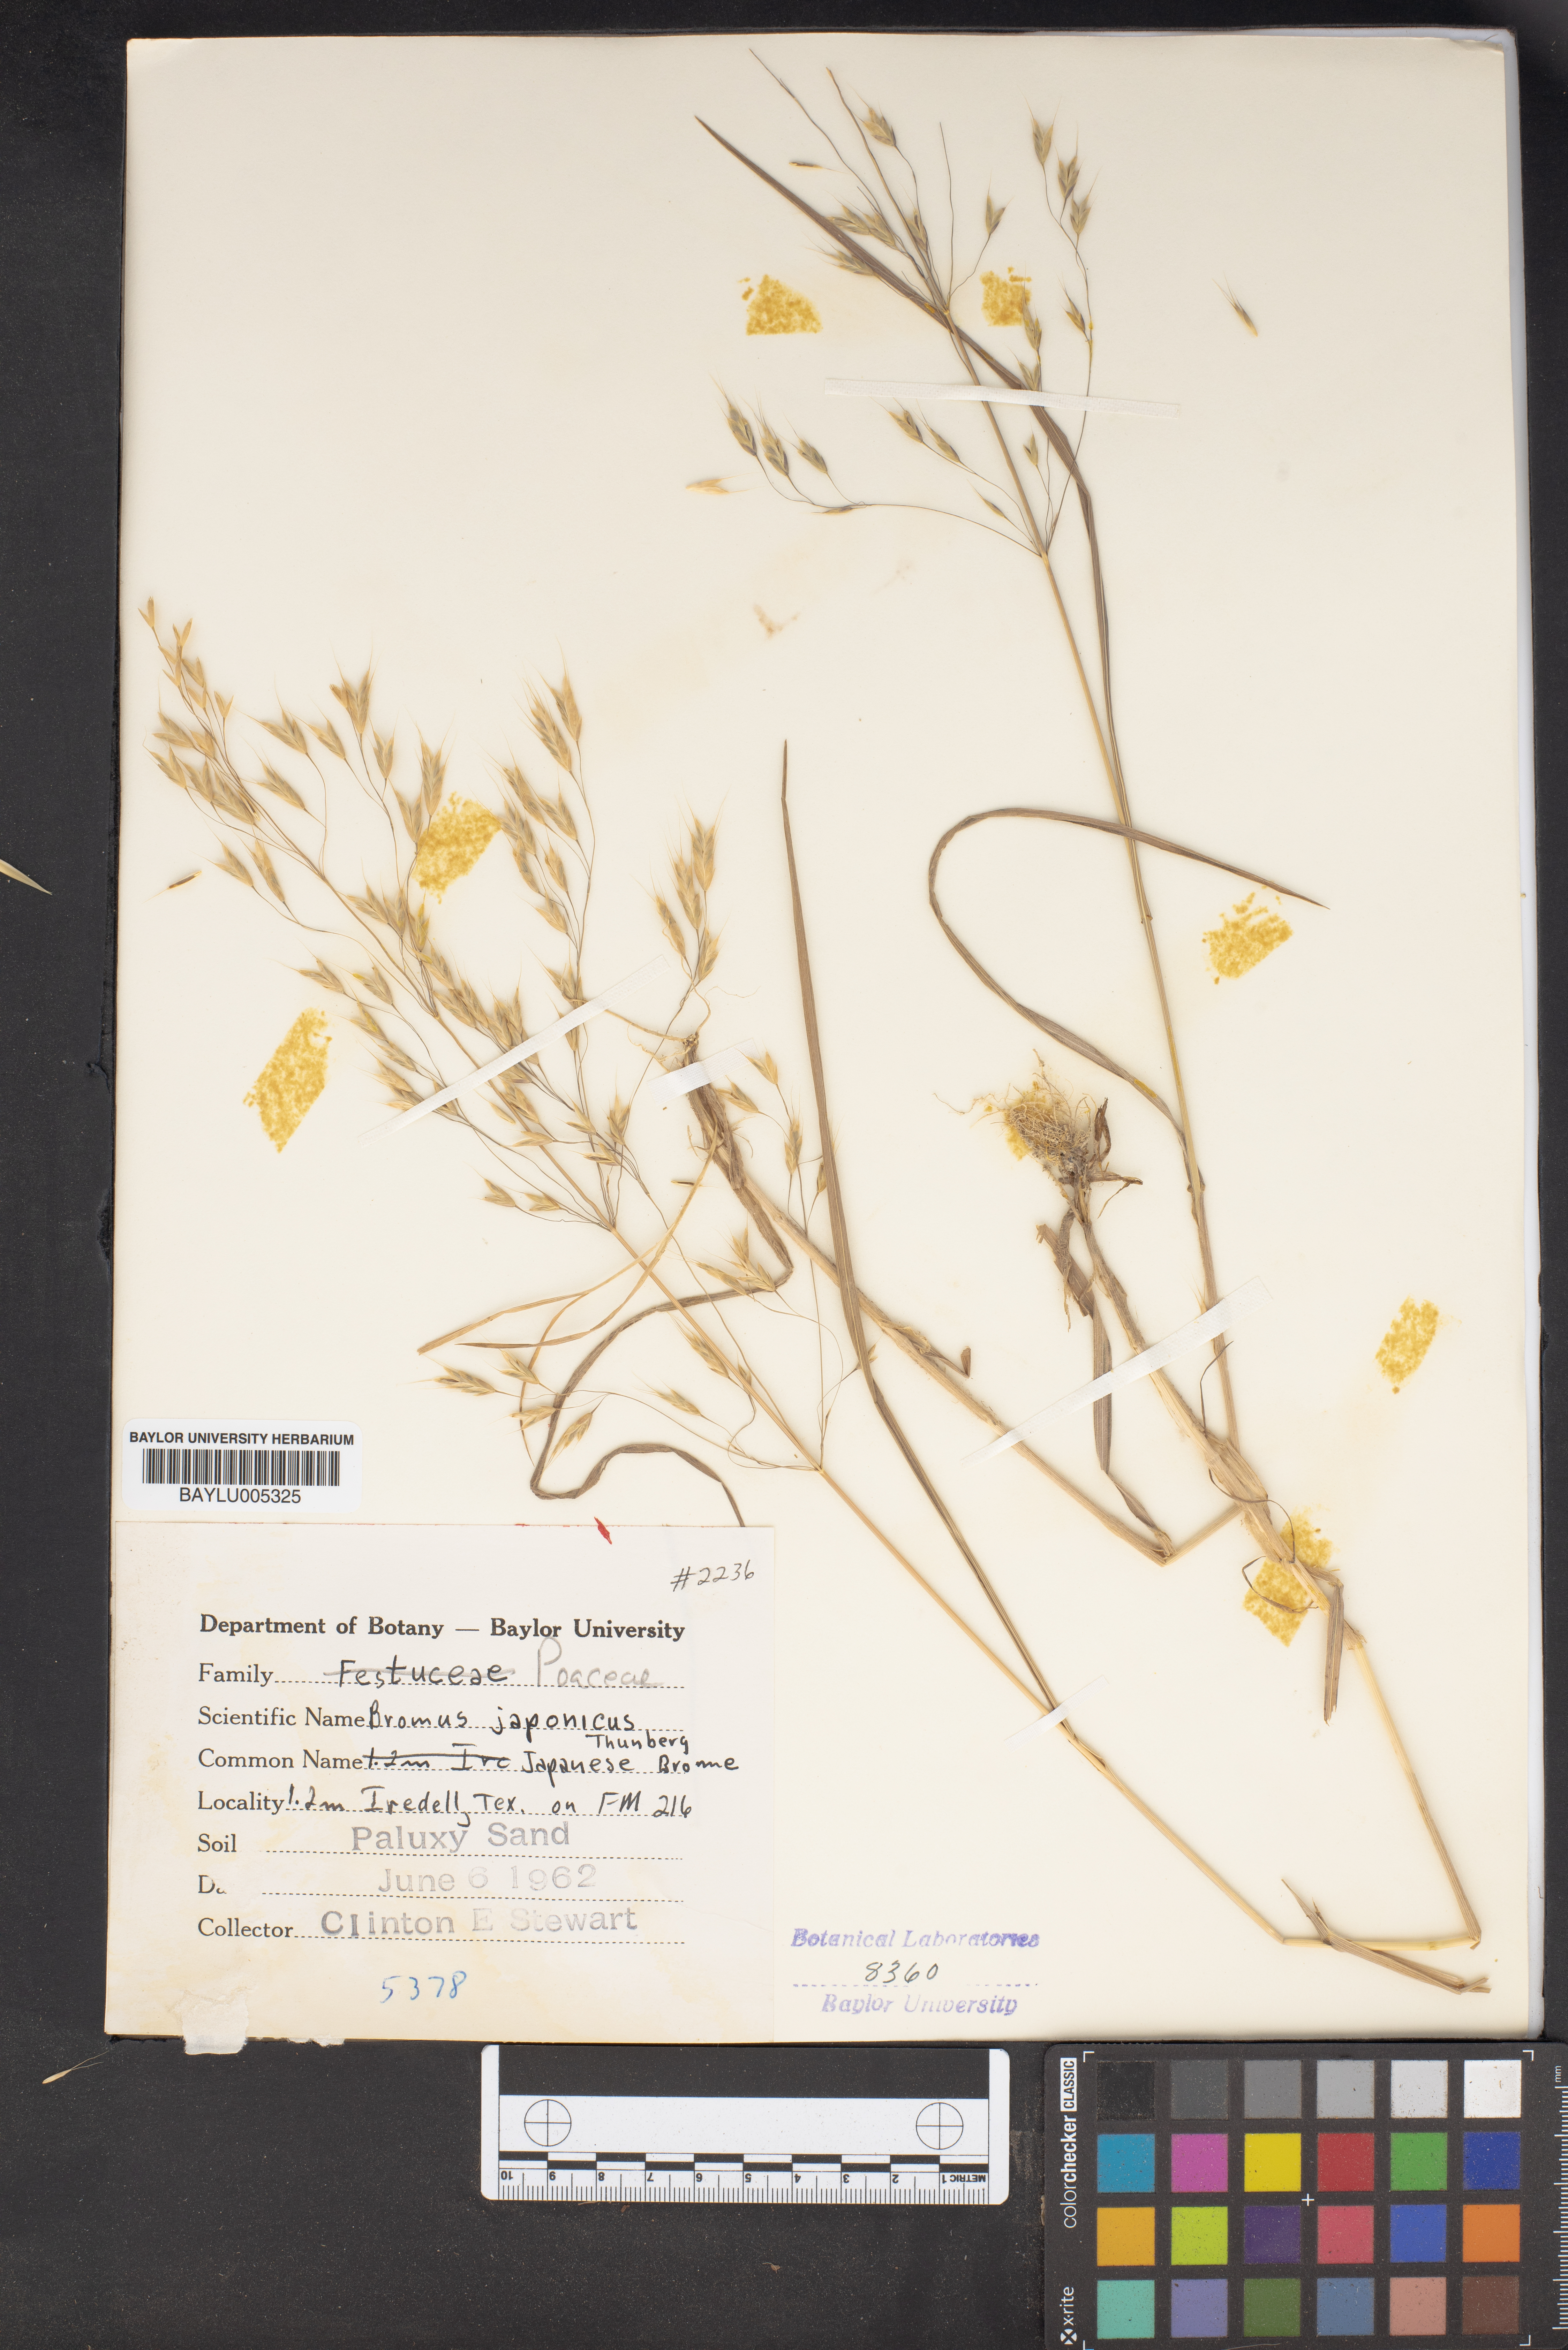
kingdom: Plantae
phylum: Tracheophyta
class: Liliopsida
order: Poales
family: Poaceae
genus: Bromus
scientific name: Bromus japonicus
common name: Japanese brome
